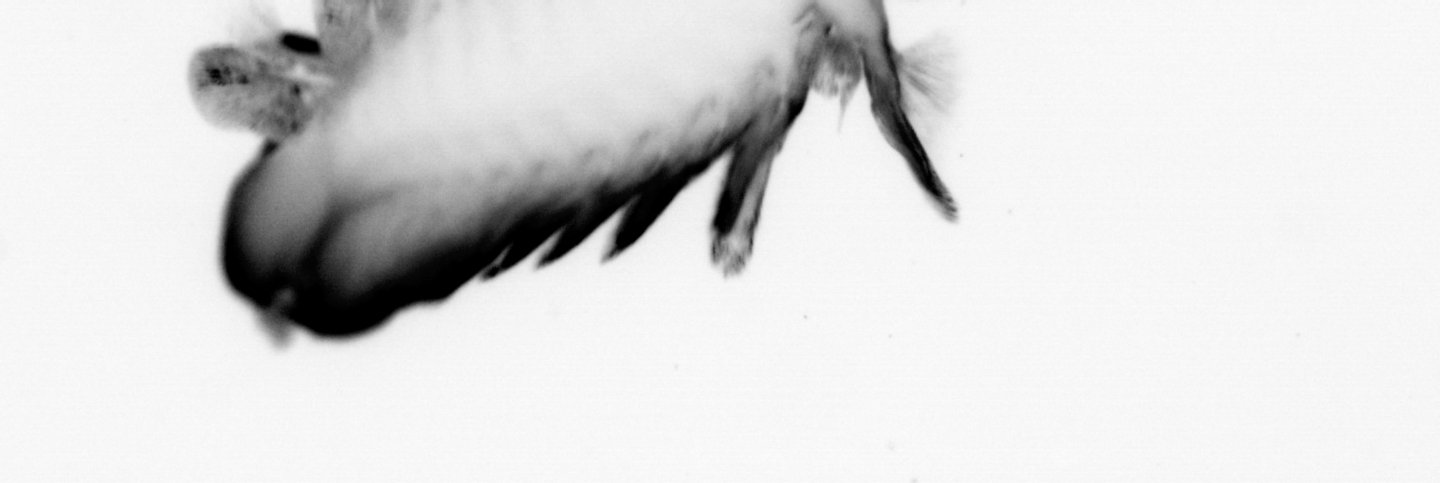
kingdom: Animalia
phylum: Annelida
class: Polychaeta
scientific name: Polychaeta
